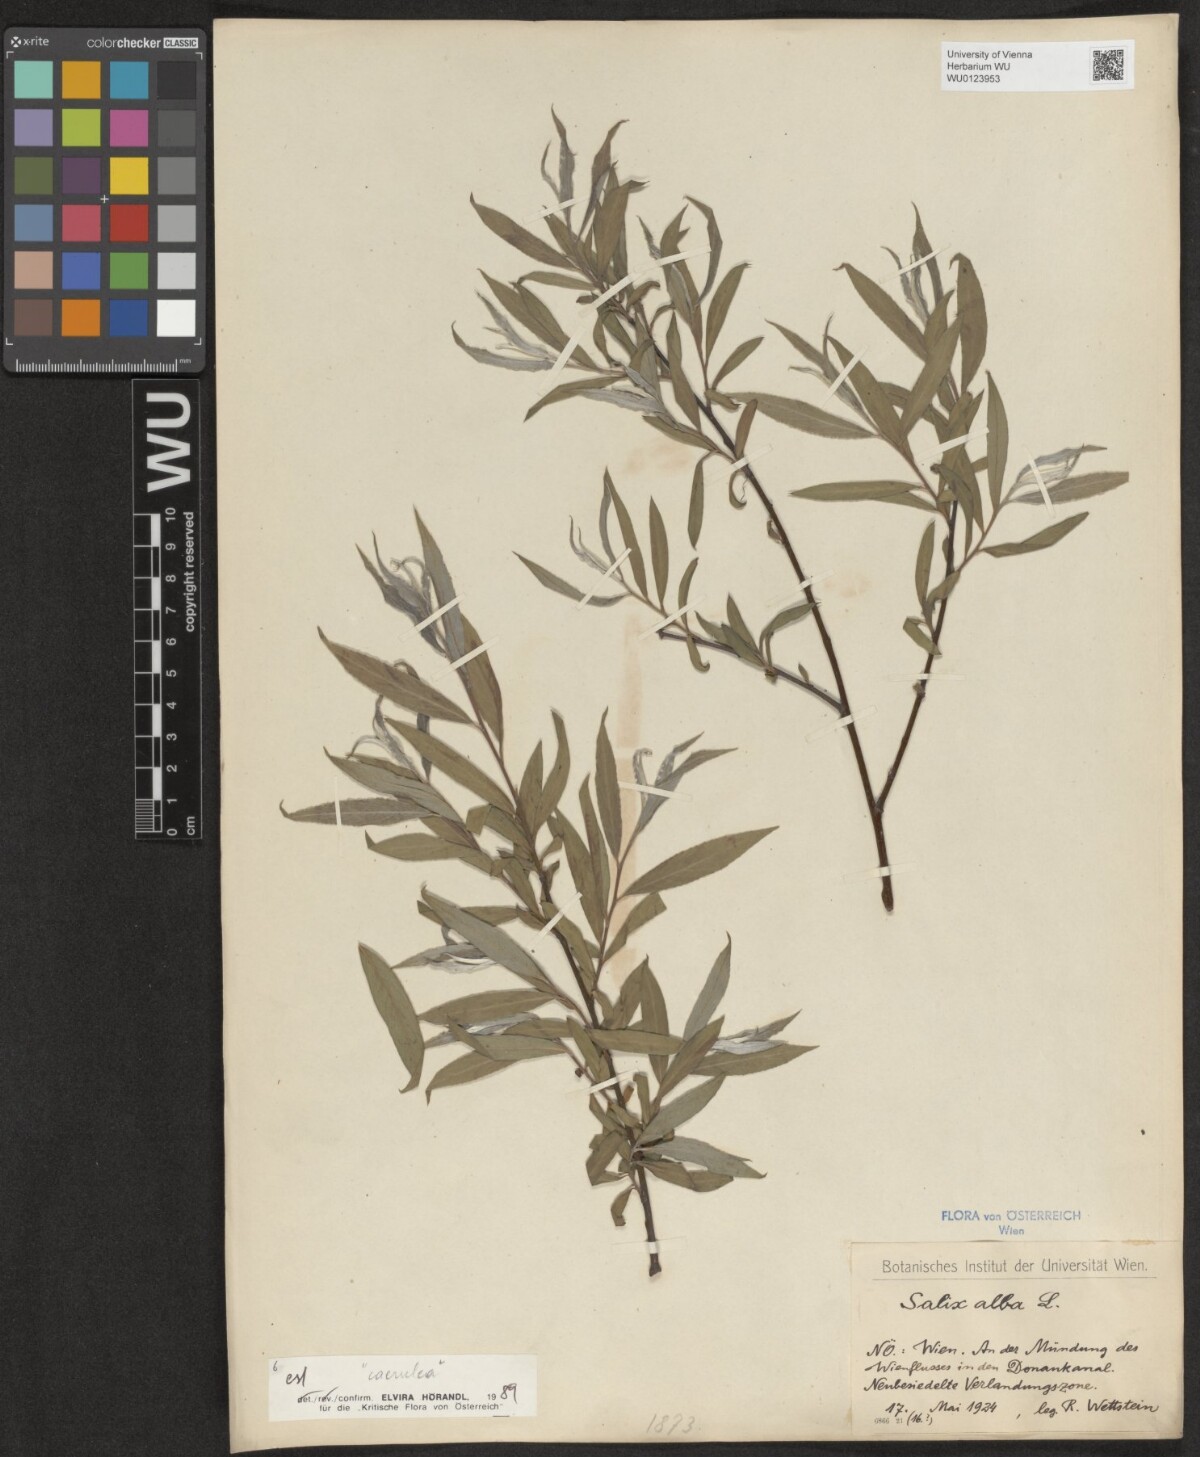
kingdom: Plantae
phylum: Tracheophyta
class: Magnoliopsida
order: Malpighiales
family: Salicaceae
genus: Salix
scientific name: Salix alba
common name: White willow
